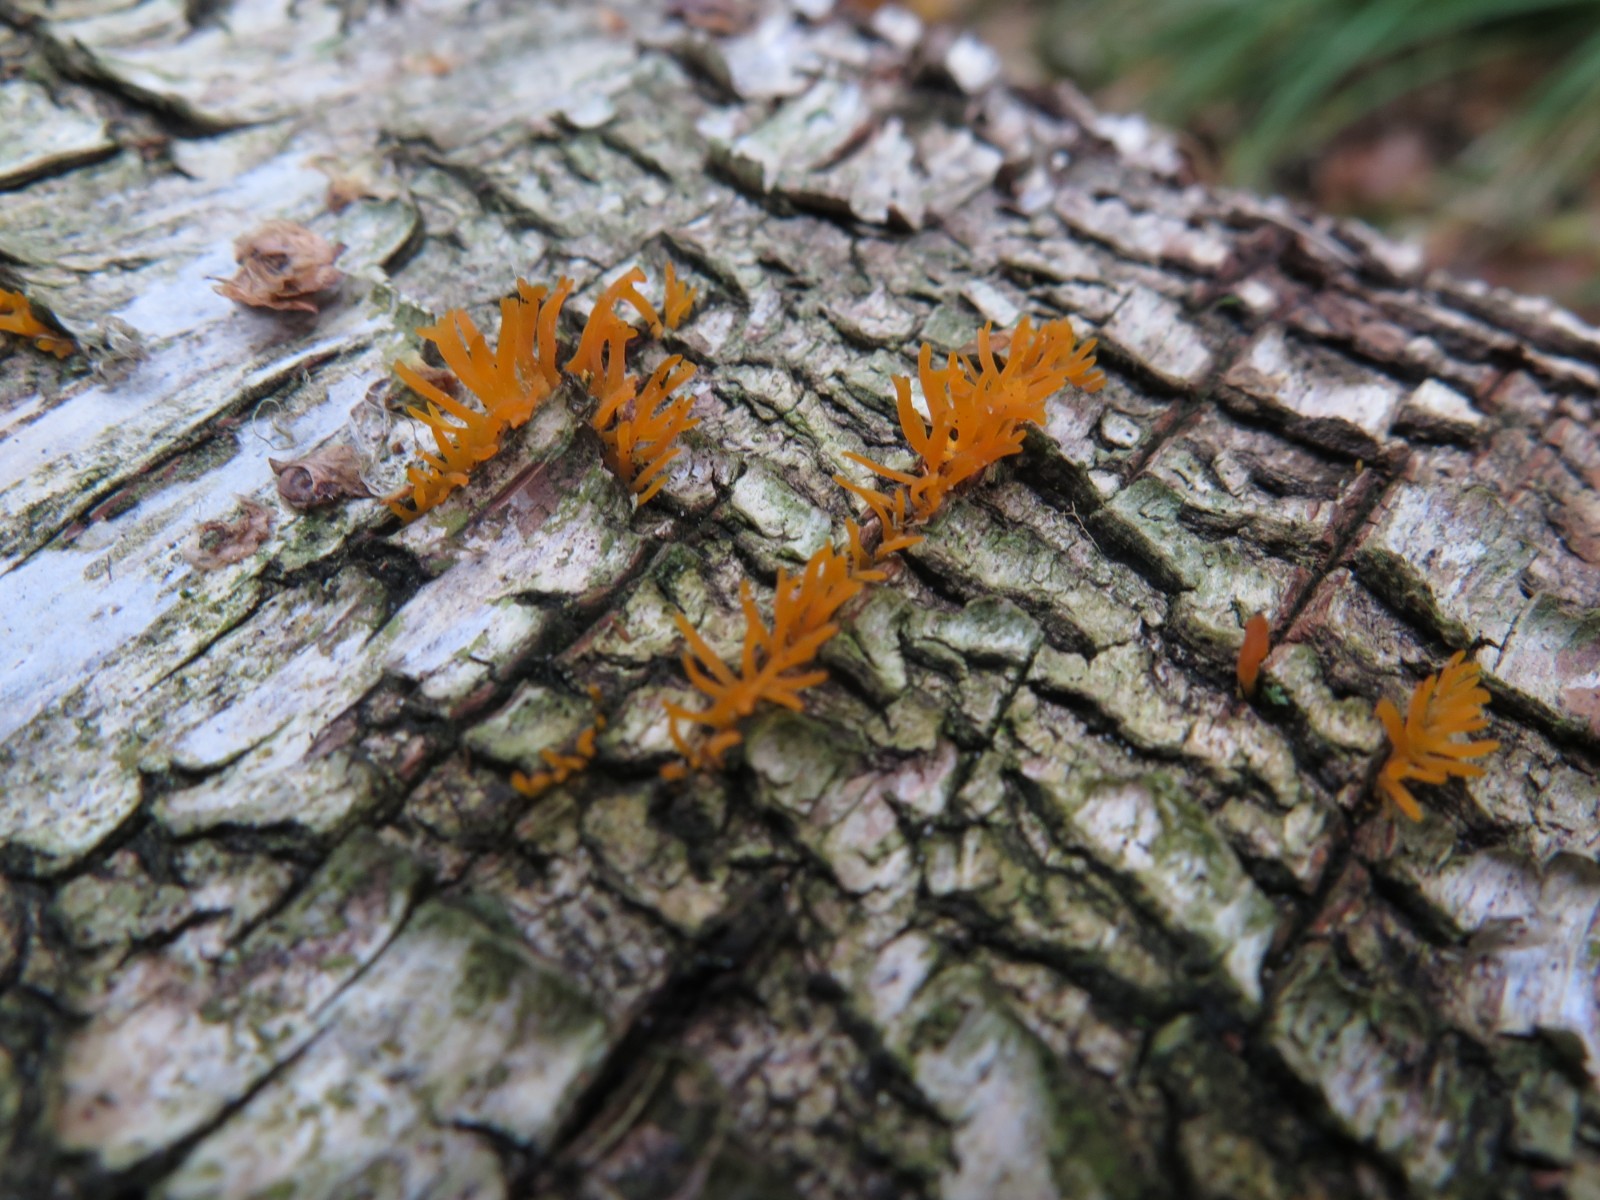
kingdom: Fungi
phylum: Basidiomycota
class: Dacrymycetes
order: Dacrymycetales
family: Dacrymycetaceae
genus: Calocera
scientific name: Calocera cornea
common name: liden guldgaffel
